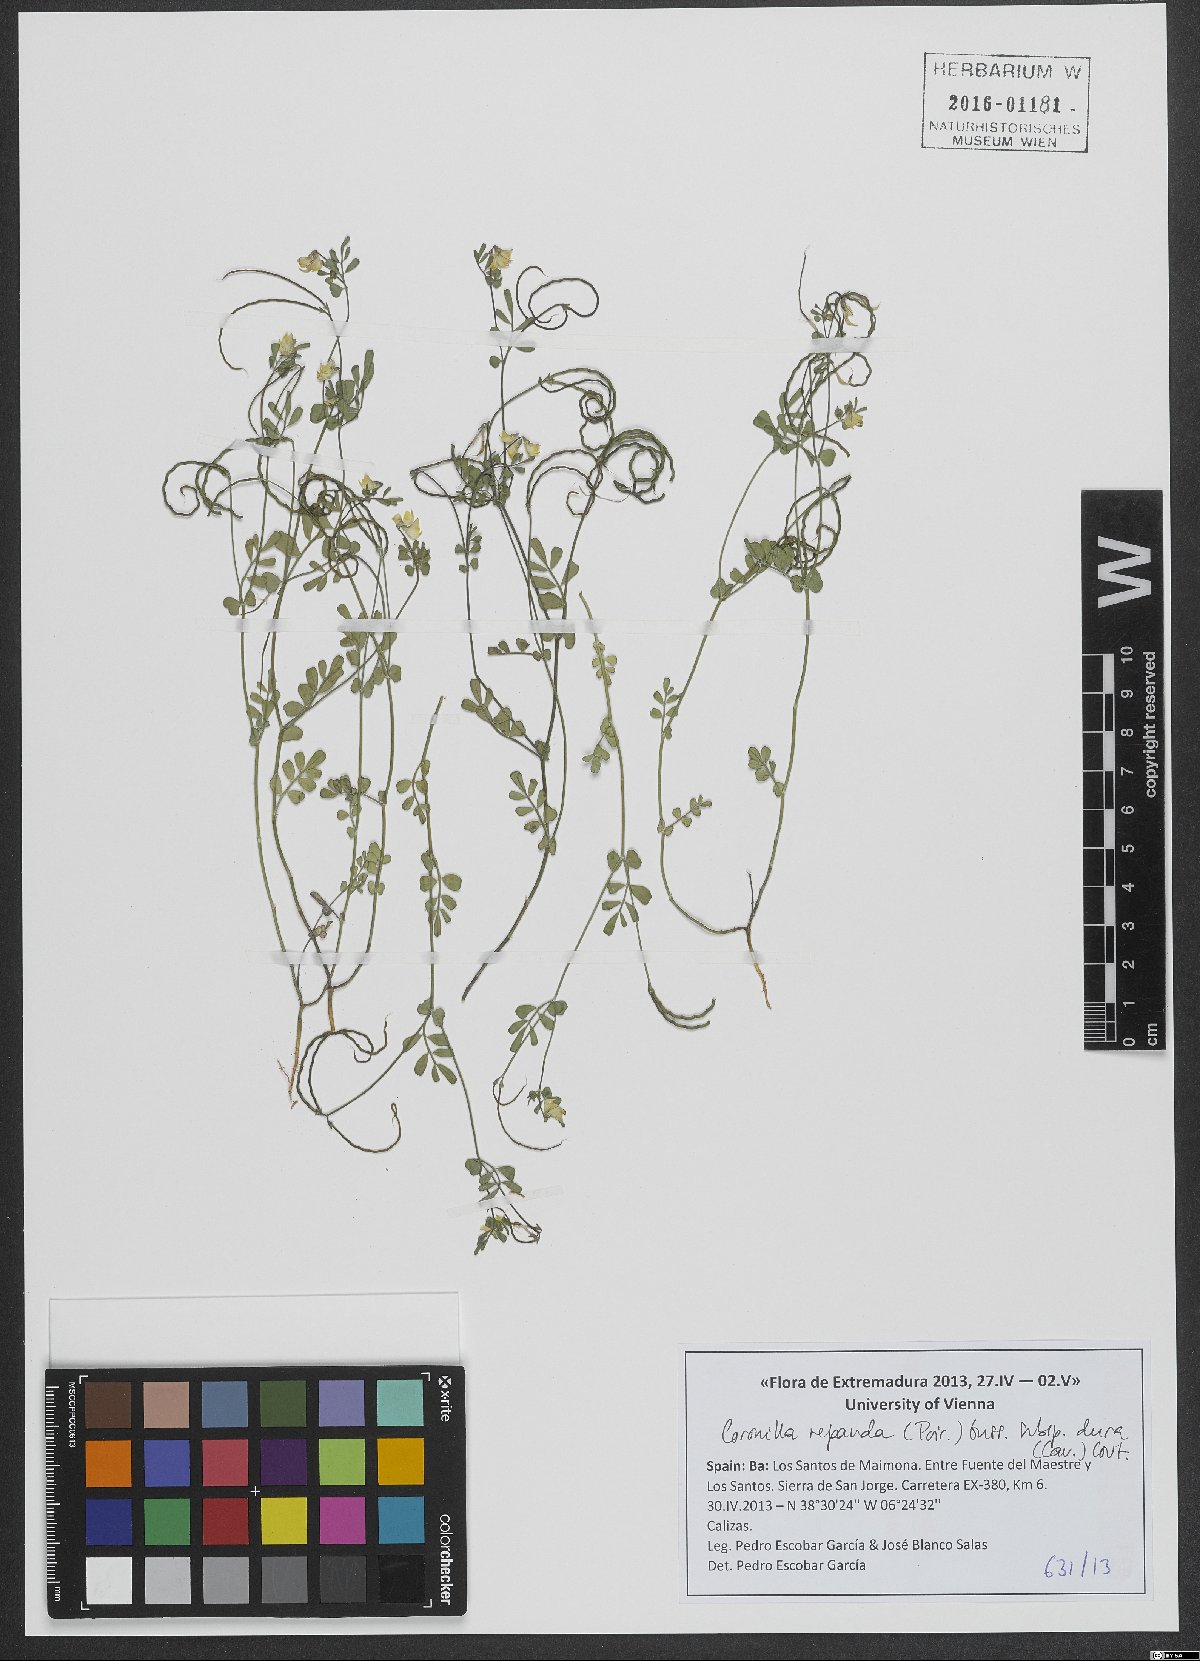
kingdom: Plantae
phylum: Tracheophyta
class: Magnoliopsida
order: Fabales
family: Fabaceae
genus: Coronilla
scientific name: Coronilla repanda
